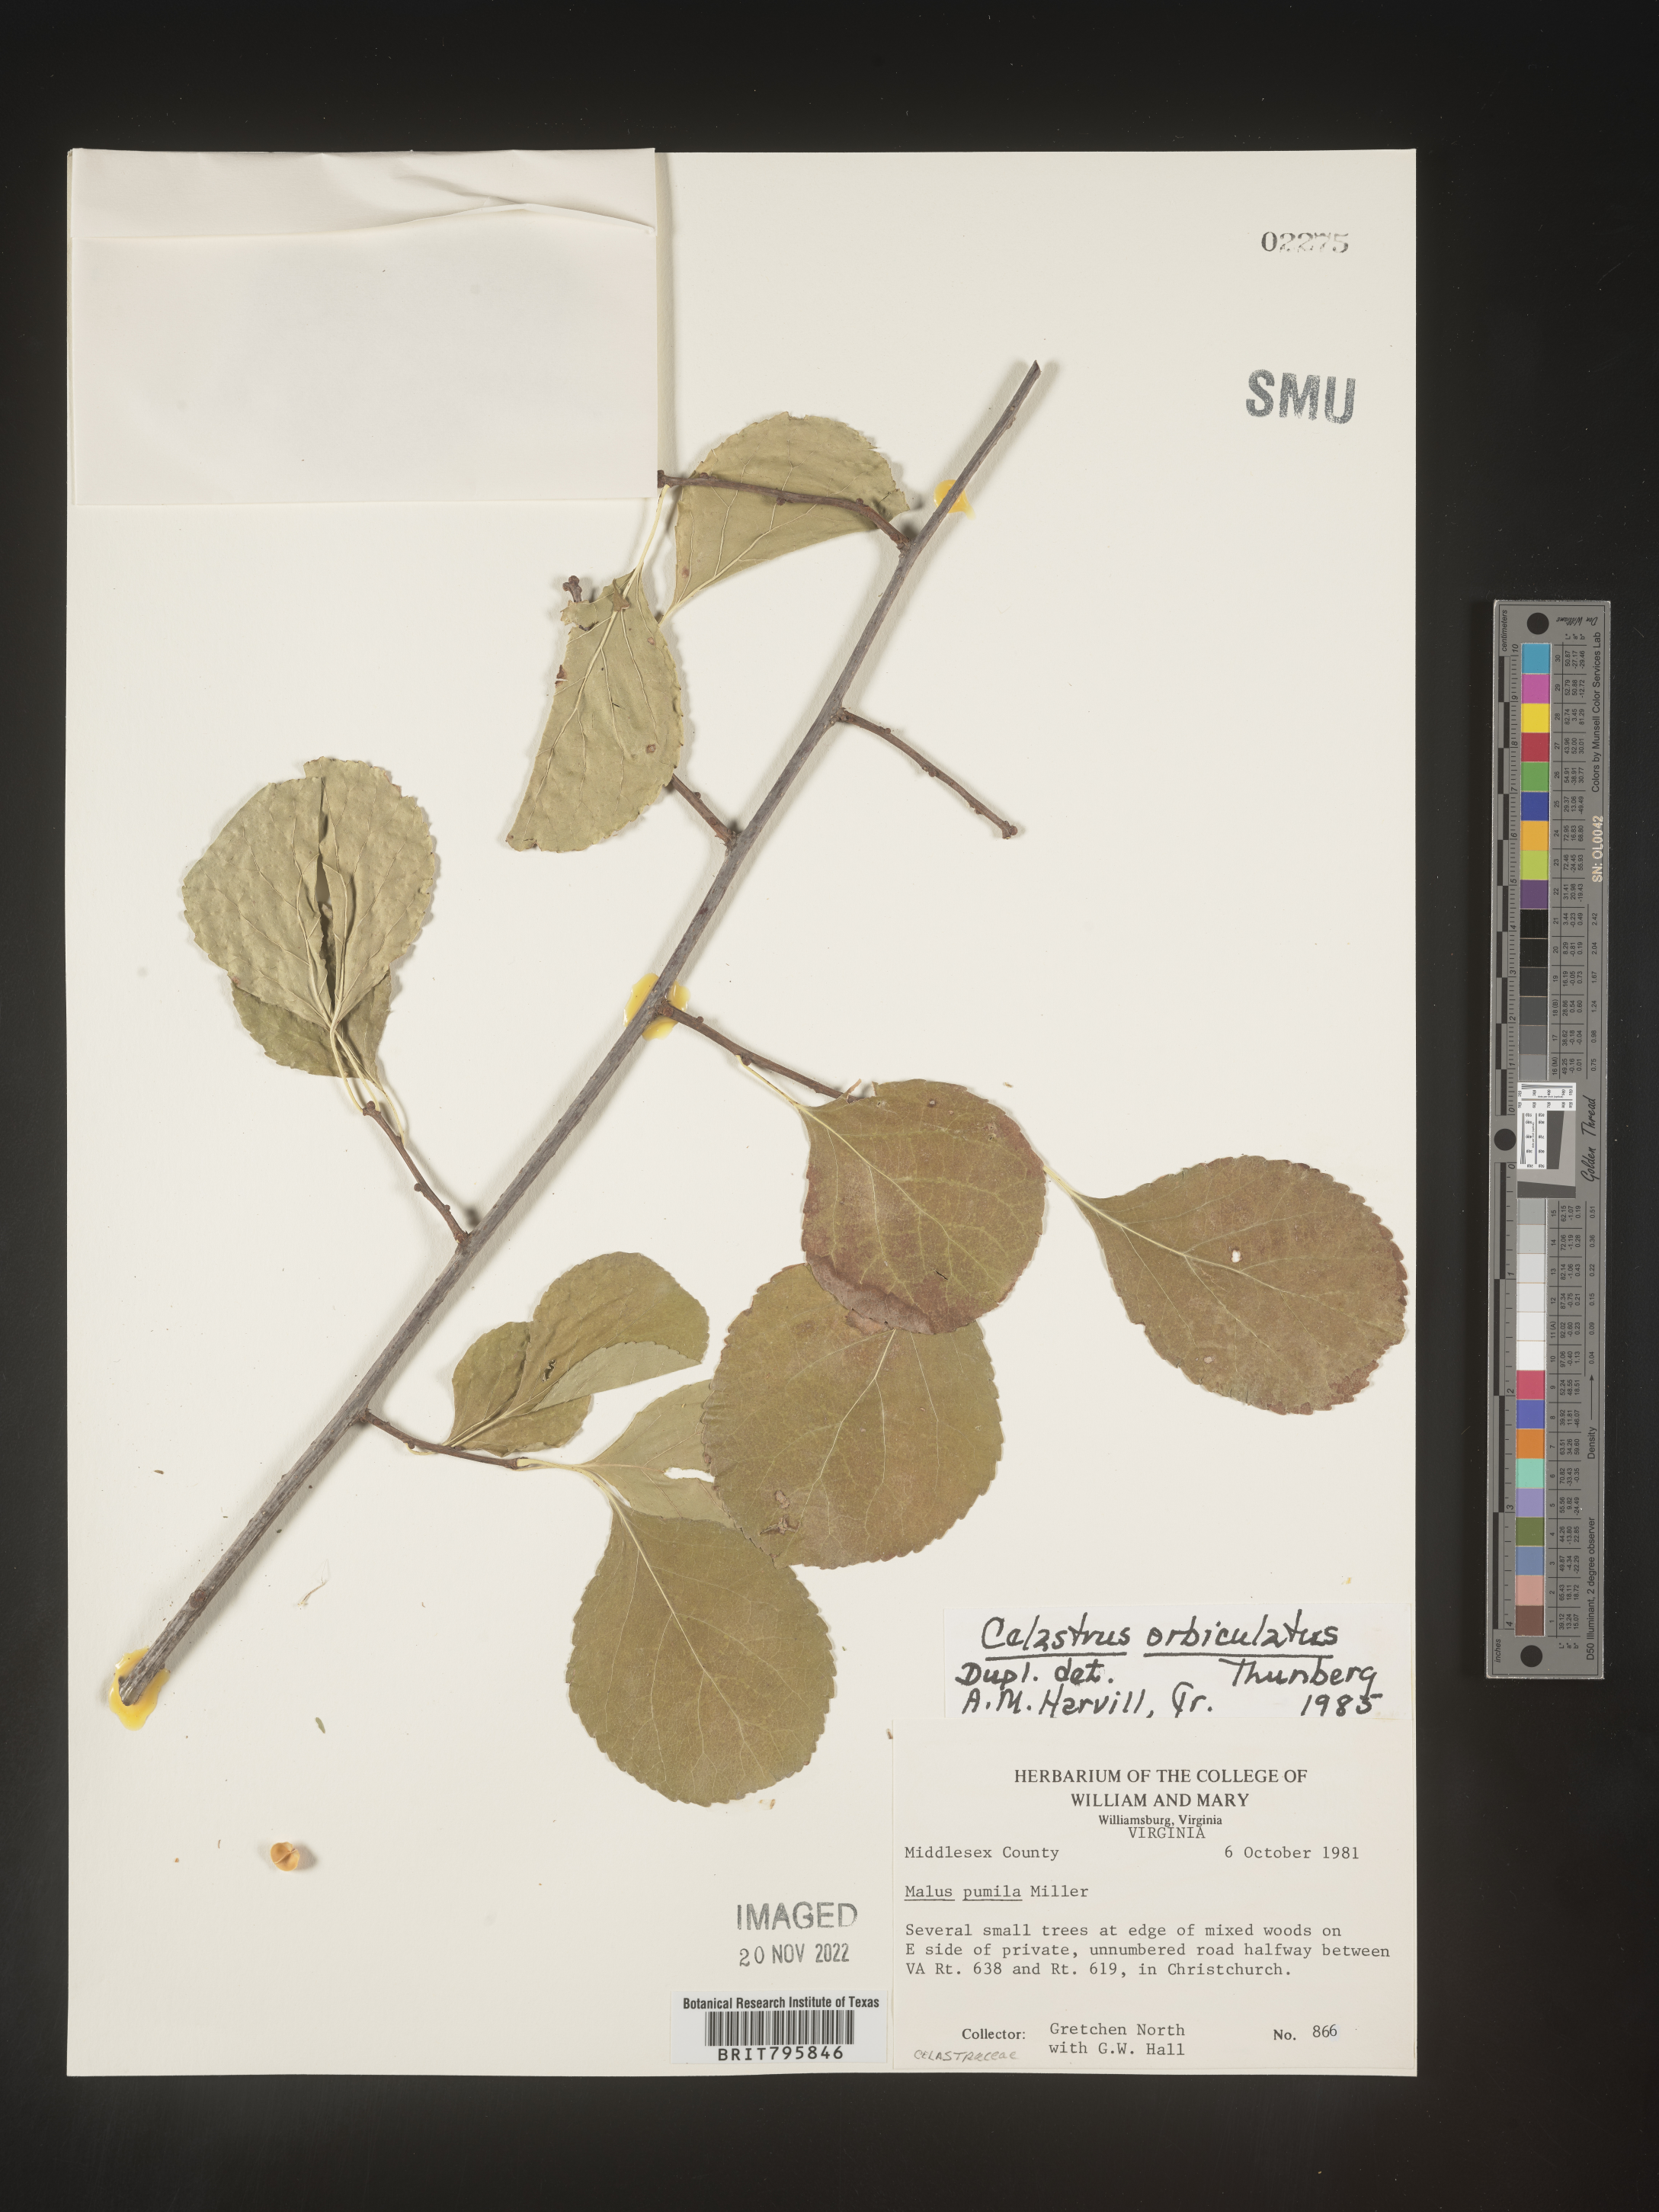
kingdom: Plantae
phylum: Tracheophyta
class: Magnoliopsida
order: Celastrales
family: Celastraceae
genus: Celastrus
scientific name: Celastrus
